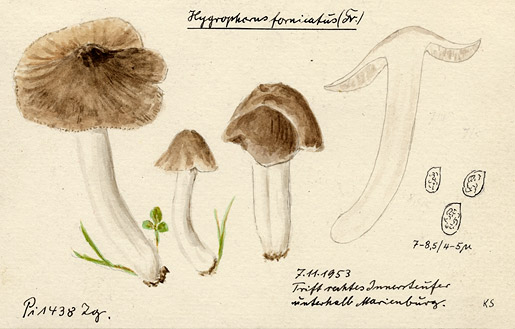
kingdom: Fungi
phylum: Basidiomycota
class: Agaricomycetes
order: Agaricales
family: Hygrophoraceae
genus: Cuphophyllus
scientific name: Cuphophyllus fornicatus
